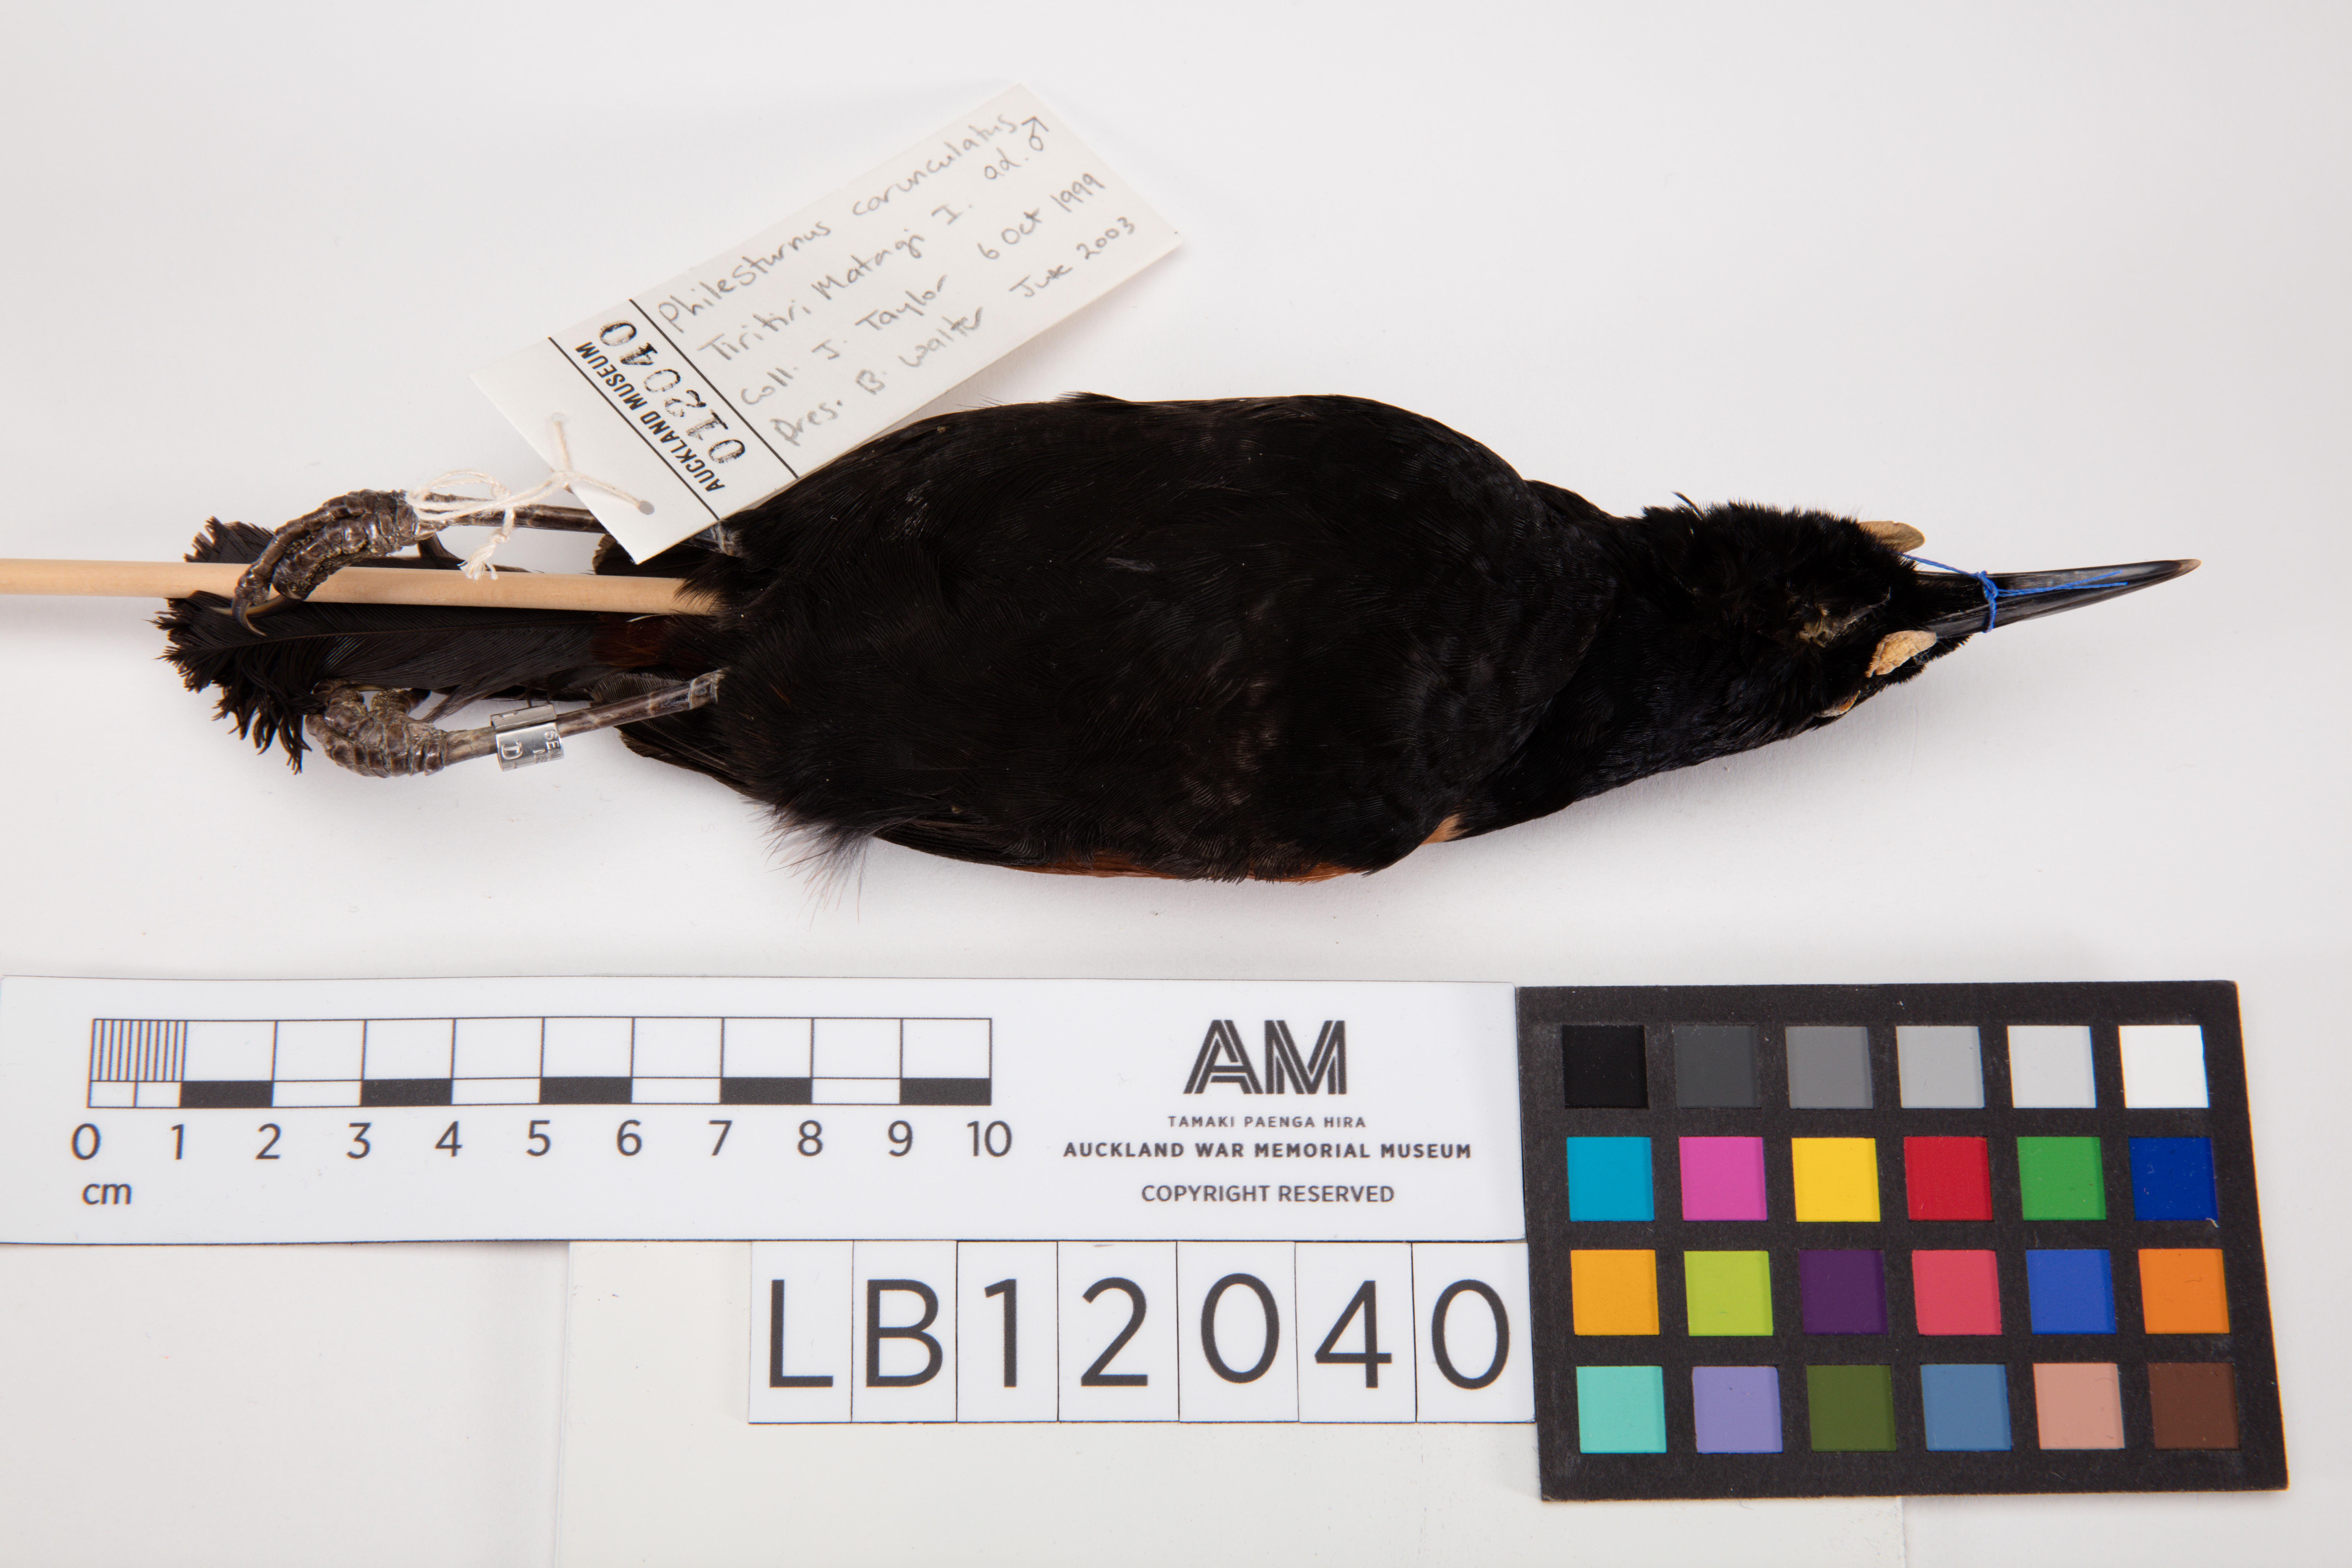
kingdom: Animalia
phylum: Chordata
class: Aves
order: Passeriformes
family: Callaeatidae
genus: Philesturnus
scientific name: Philesturnus carunculatus
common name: South island saddleback
